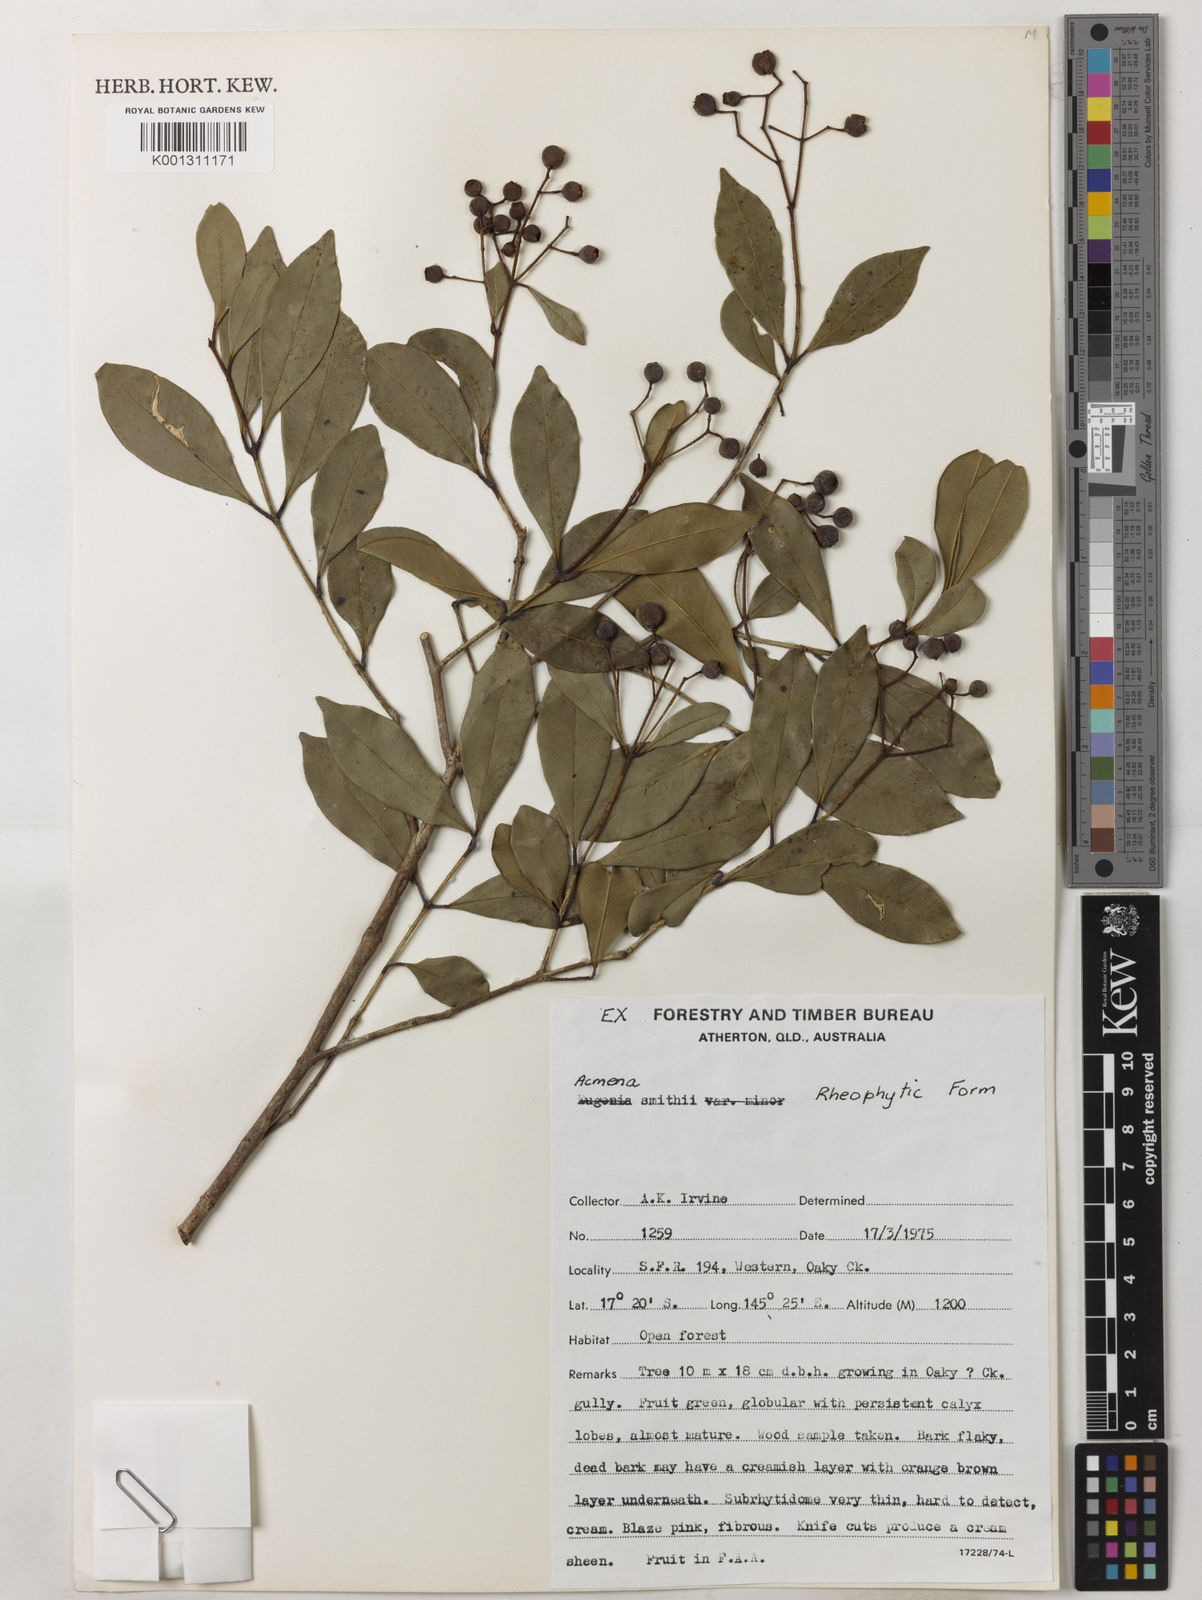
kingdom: Plantae
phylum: Tracheophyta
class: Magnoliopsida
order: Myrtales
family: Myrtaceae
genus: Syzygium
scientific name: Syzygium smithii
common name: Lilly-pilly
